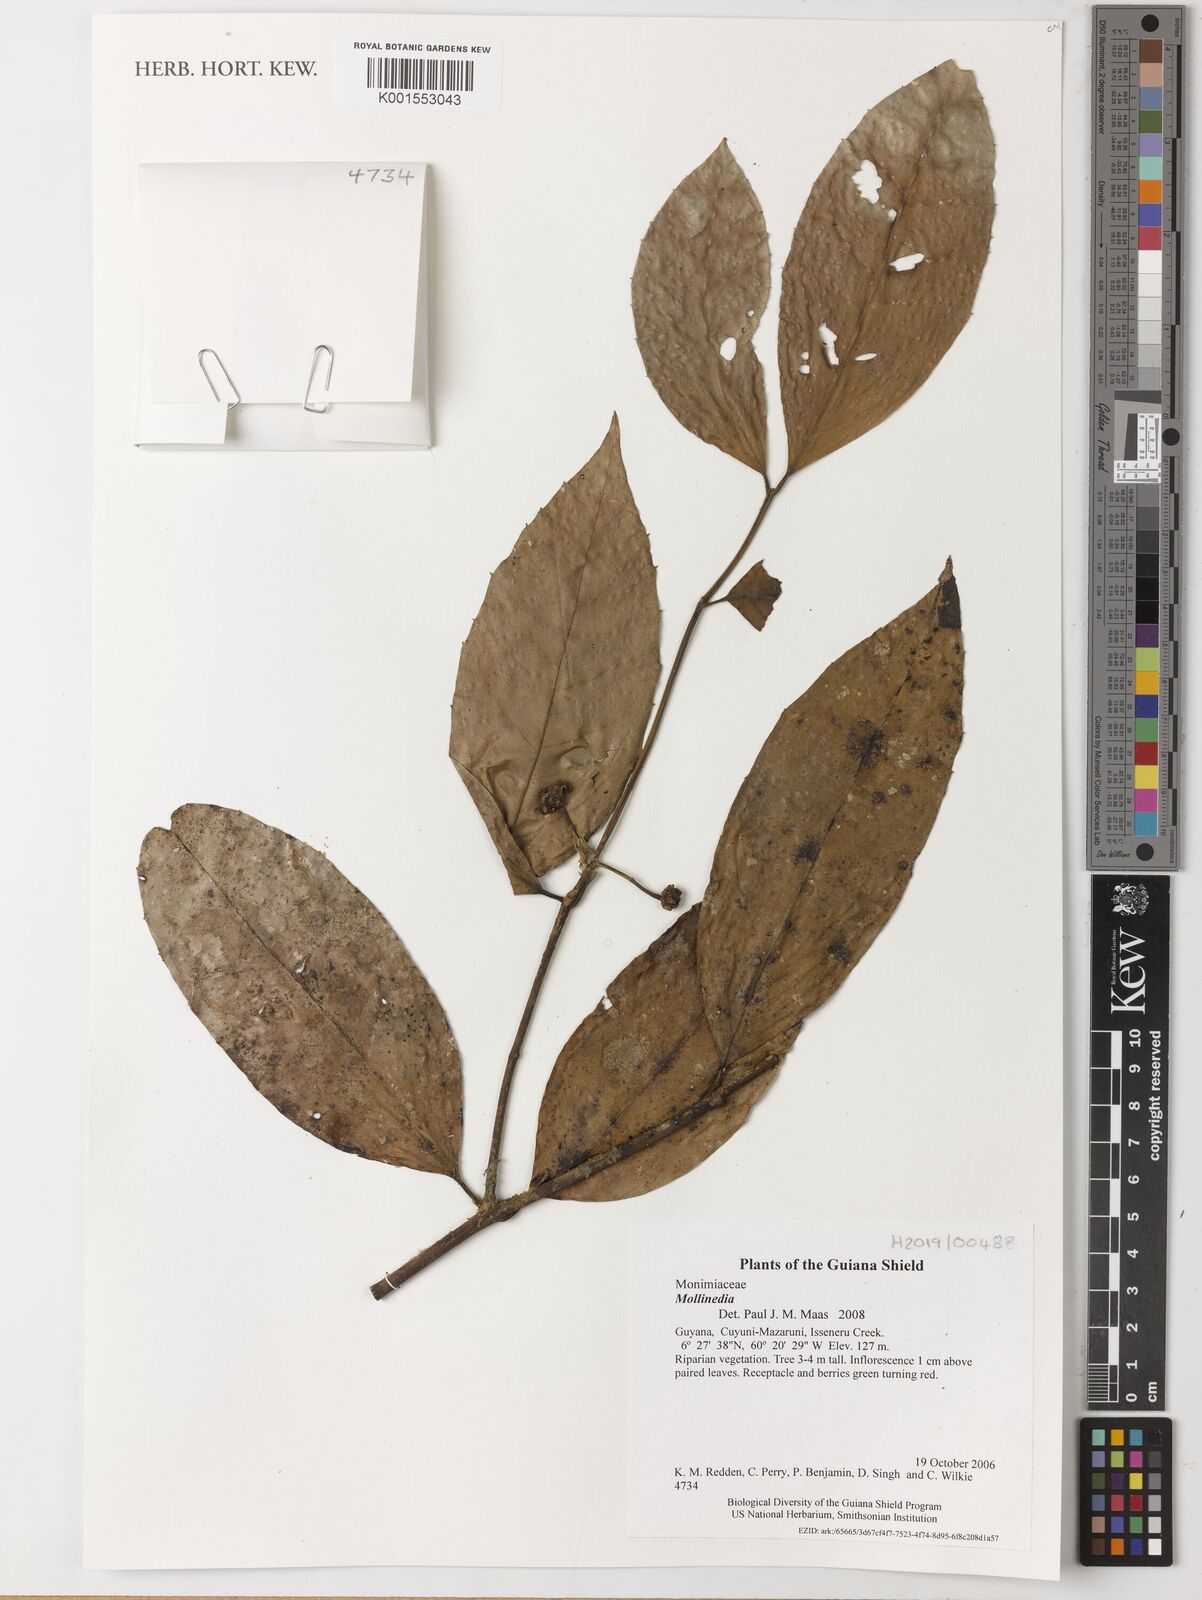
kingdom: Plantae
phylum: Tracheophyta
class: Magnoliopsida
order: Laurales
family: Monimiaceae
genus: Mollinedia
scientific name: Mollinedia
